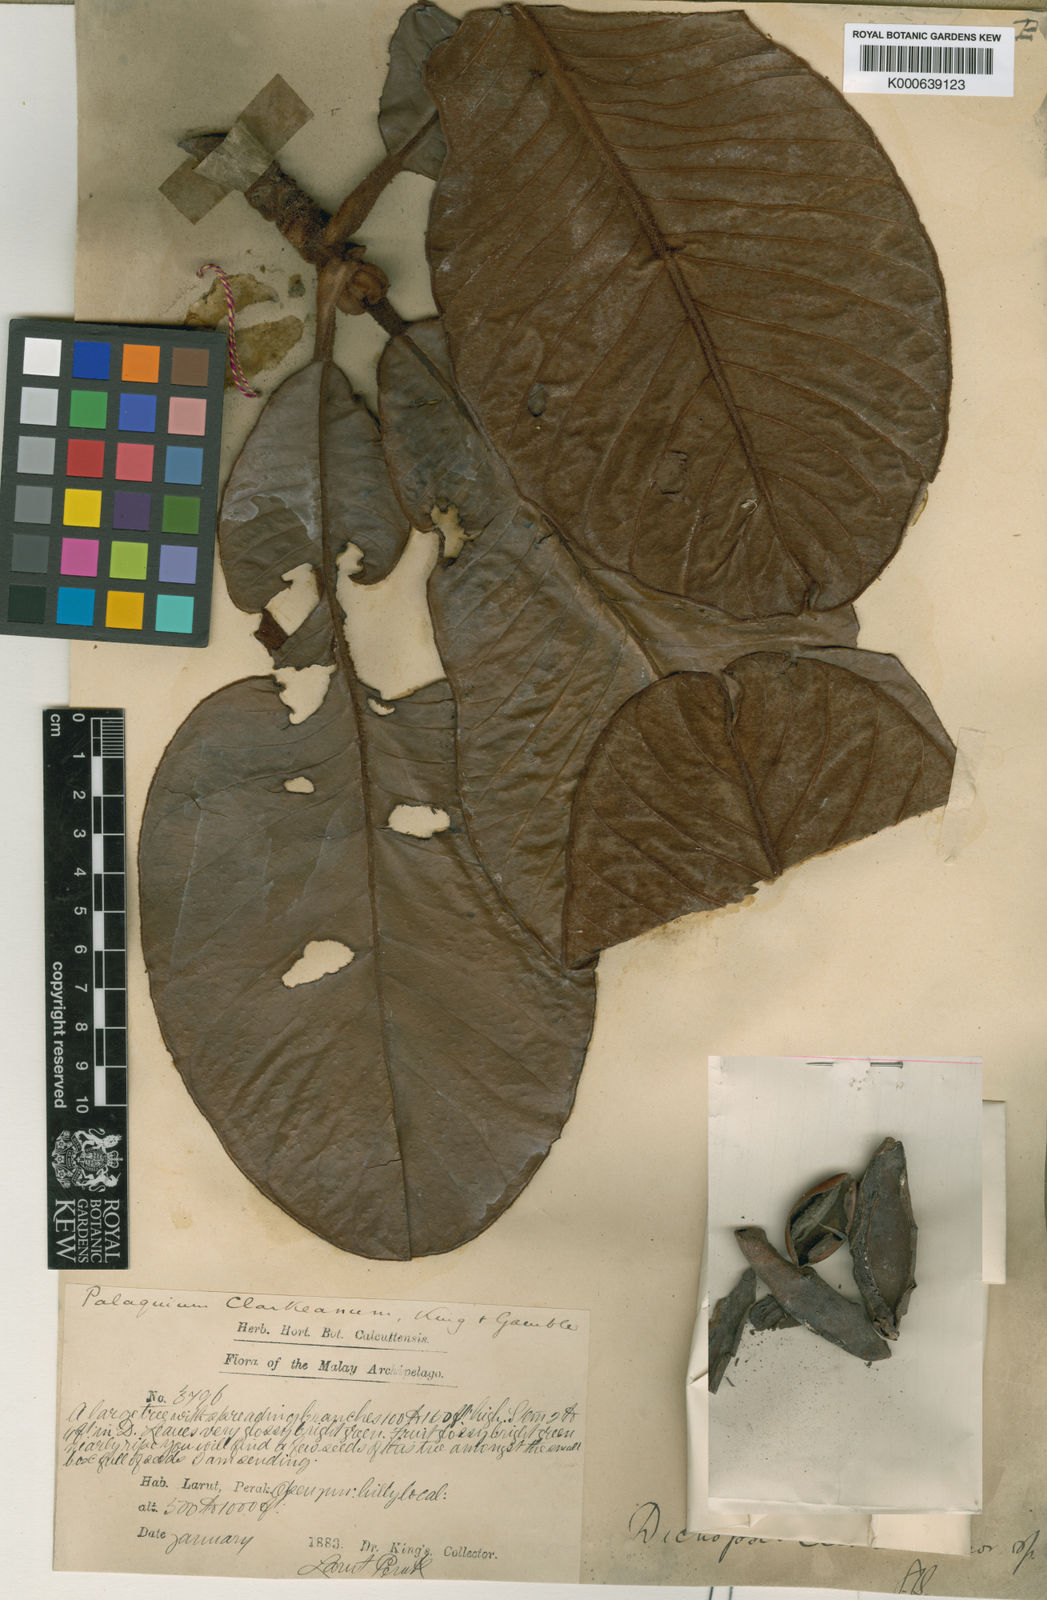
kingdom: Plantae
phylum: Tracheophyta
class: Magnoliopsida
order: Ericales
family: Sapotaceae
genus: Palaquium
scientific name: Palaquium clarkeanum
